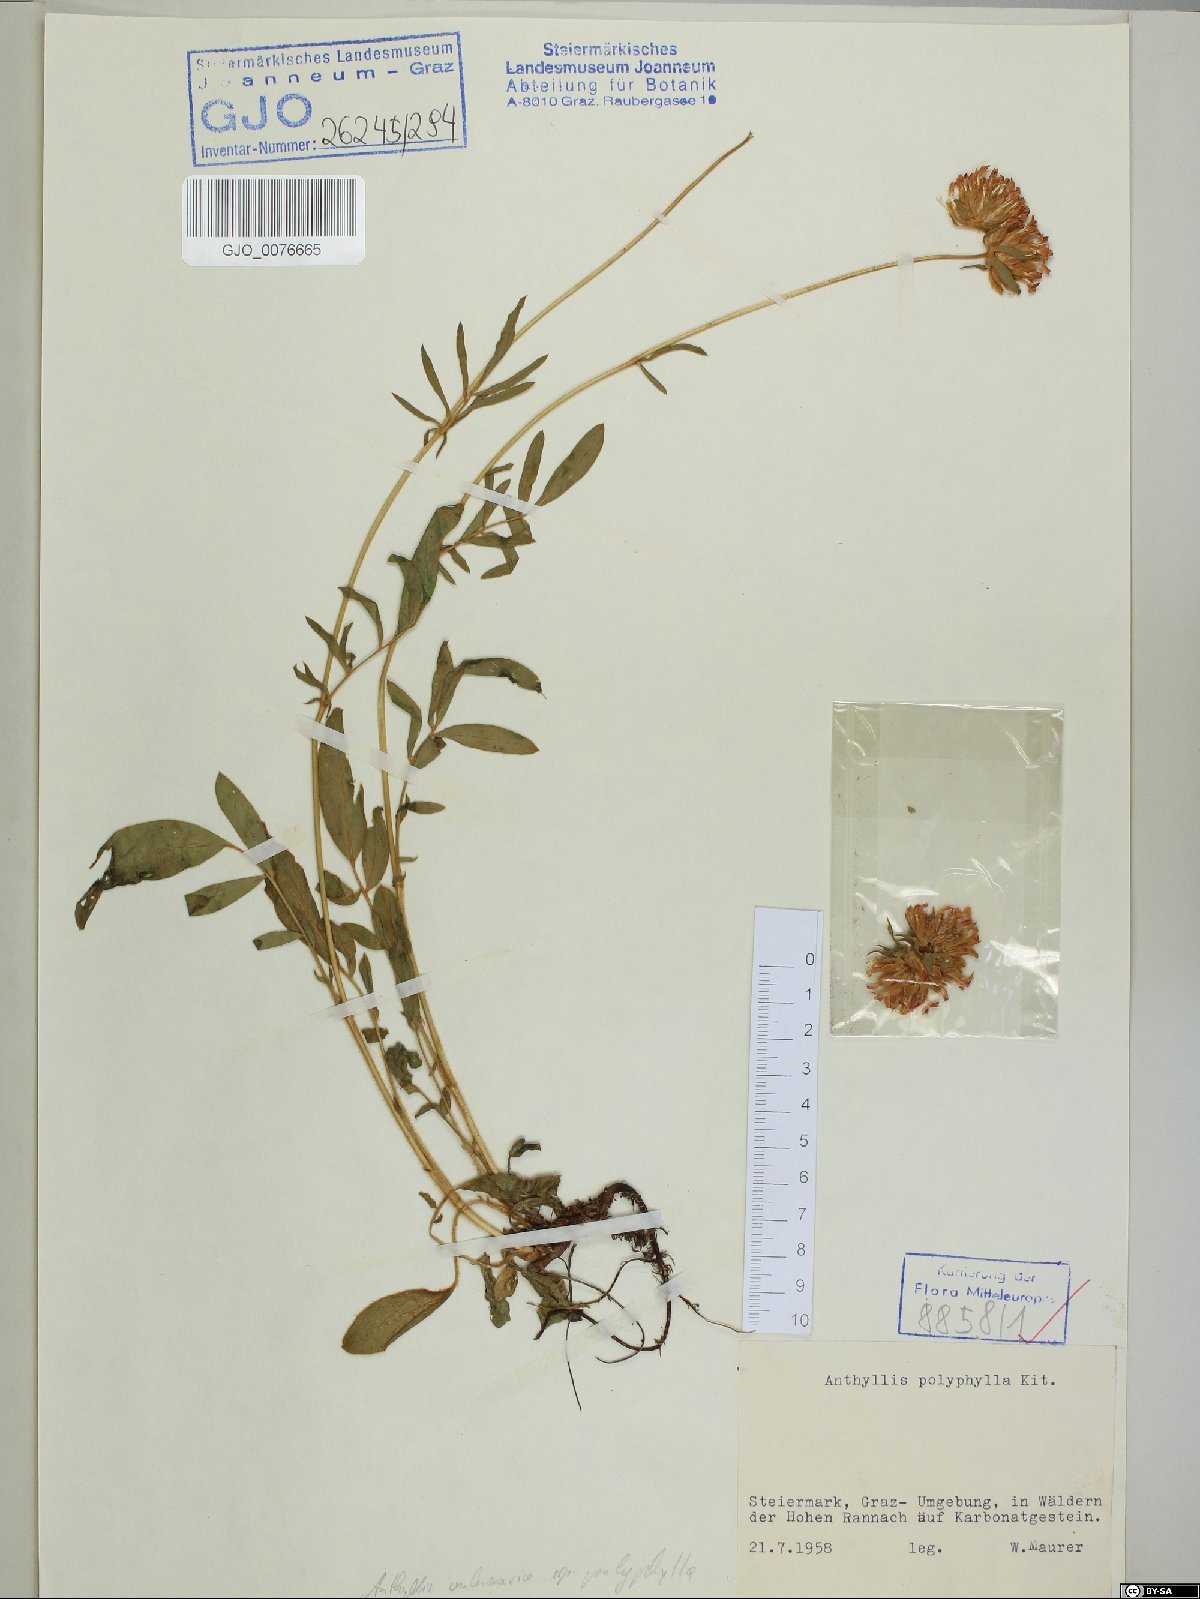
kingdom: Plantae
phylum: Tracheophyta
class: Magnoliopsida
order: Fabales
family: Fabaceae
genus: Anthyllis
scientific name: Anthyllis vulneraria
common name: Kidney vetch
